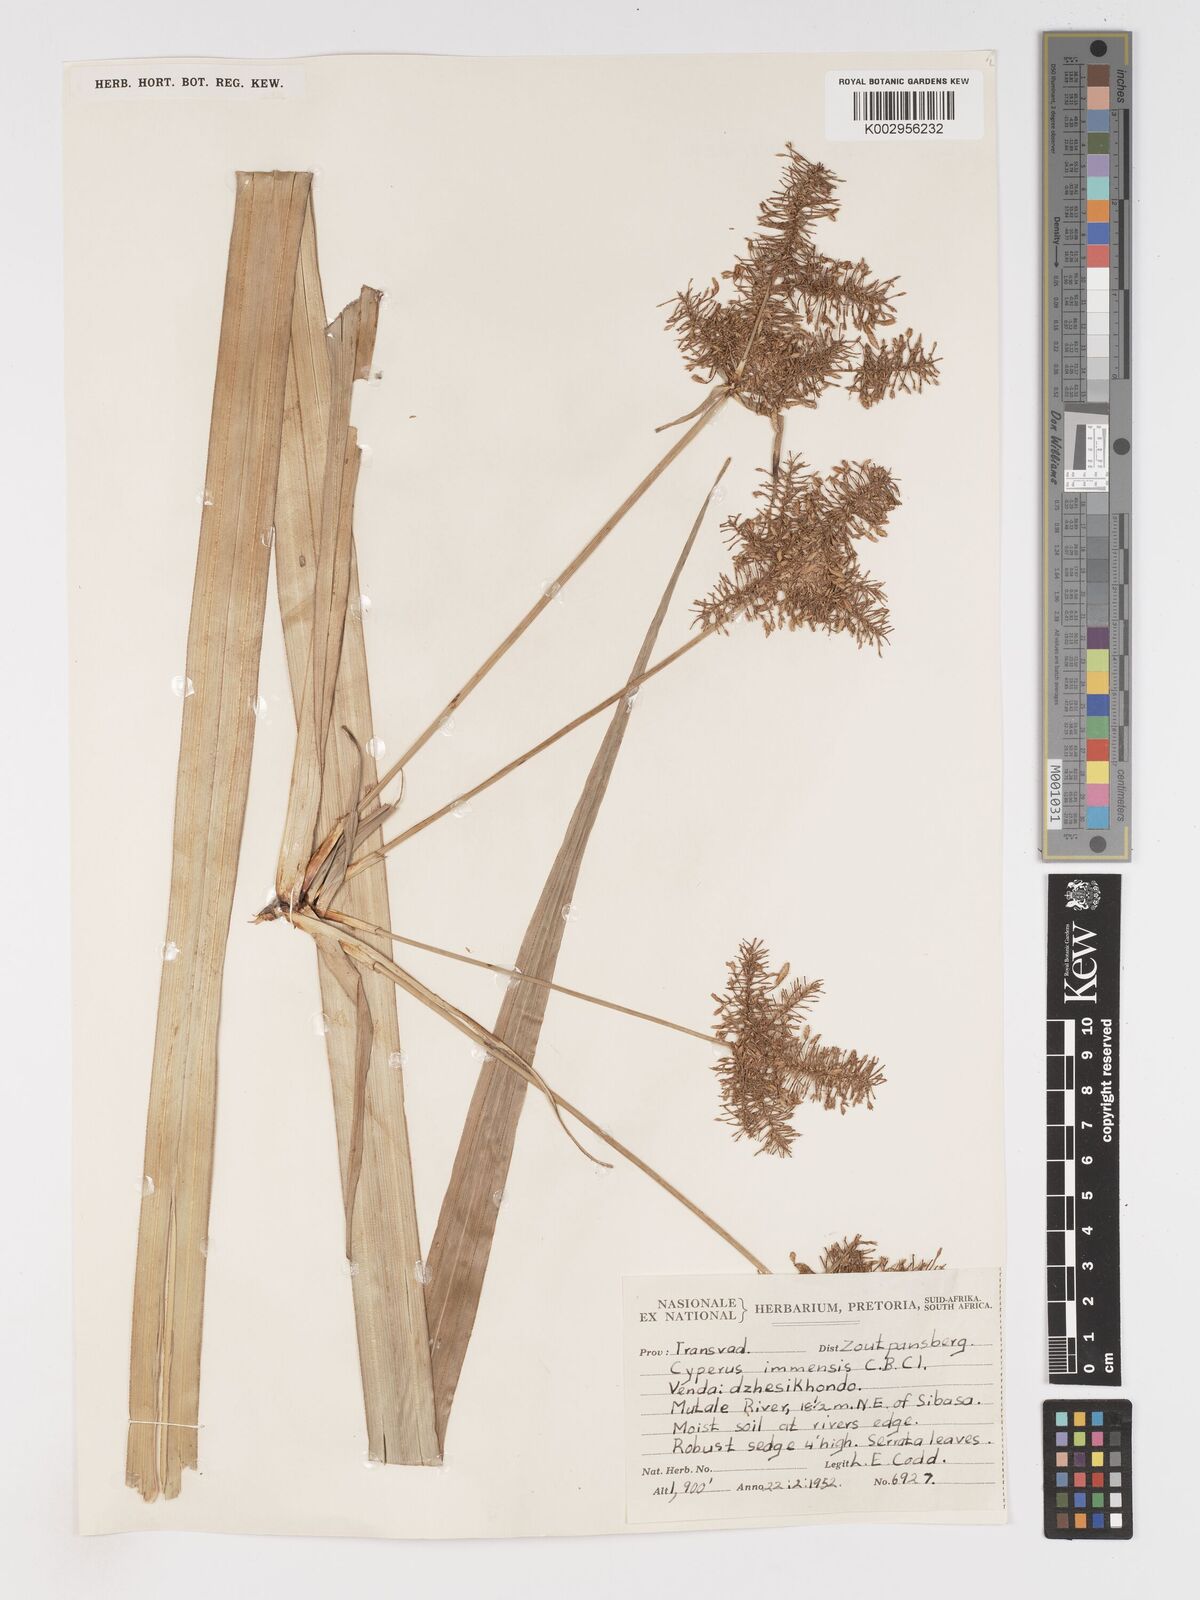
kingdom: Plantae
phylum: Tracheophyta
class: Liliopsida
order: Poales
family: Cyperaceae
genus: Cyperus
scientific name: Cyperus dives
